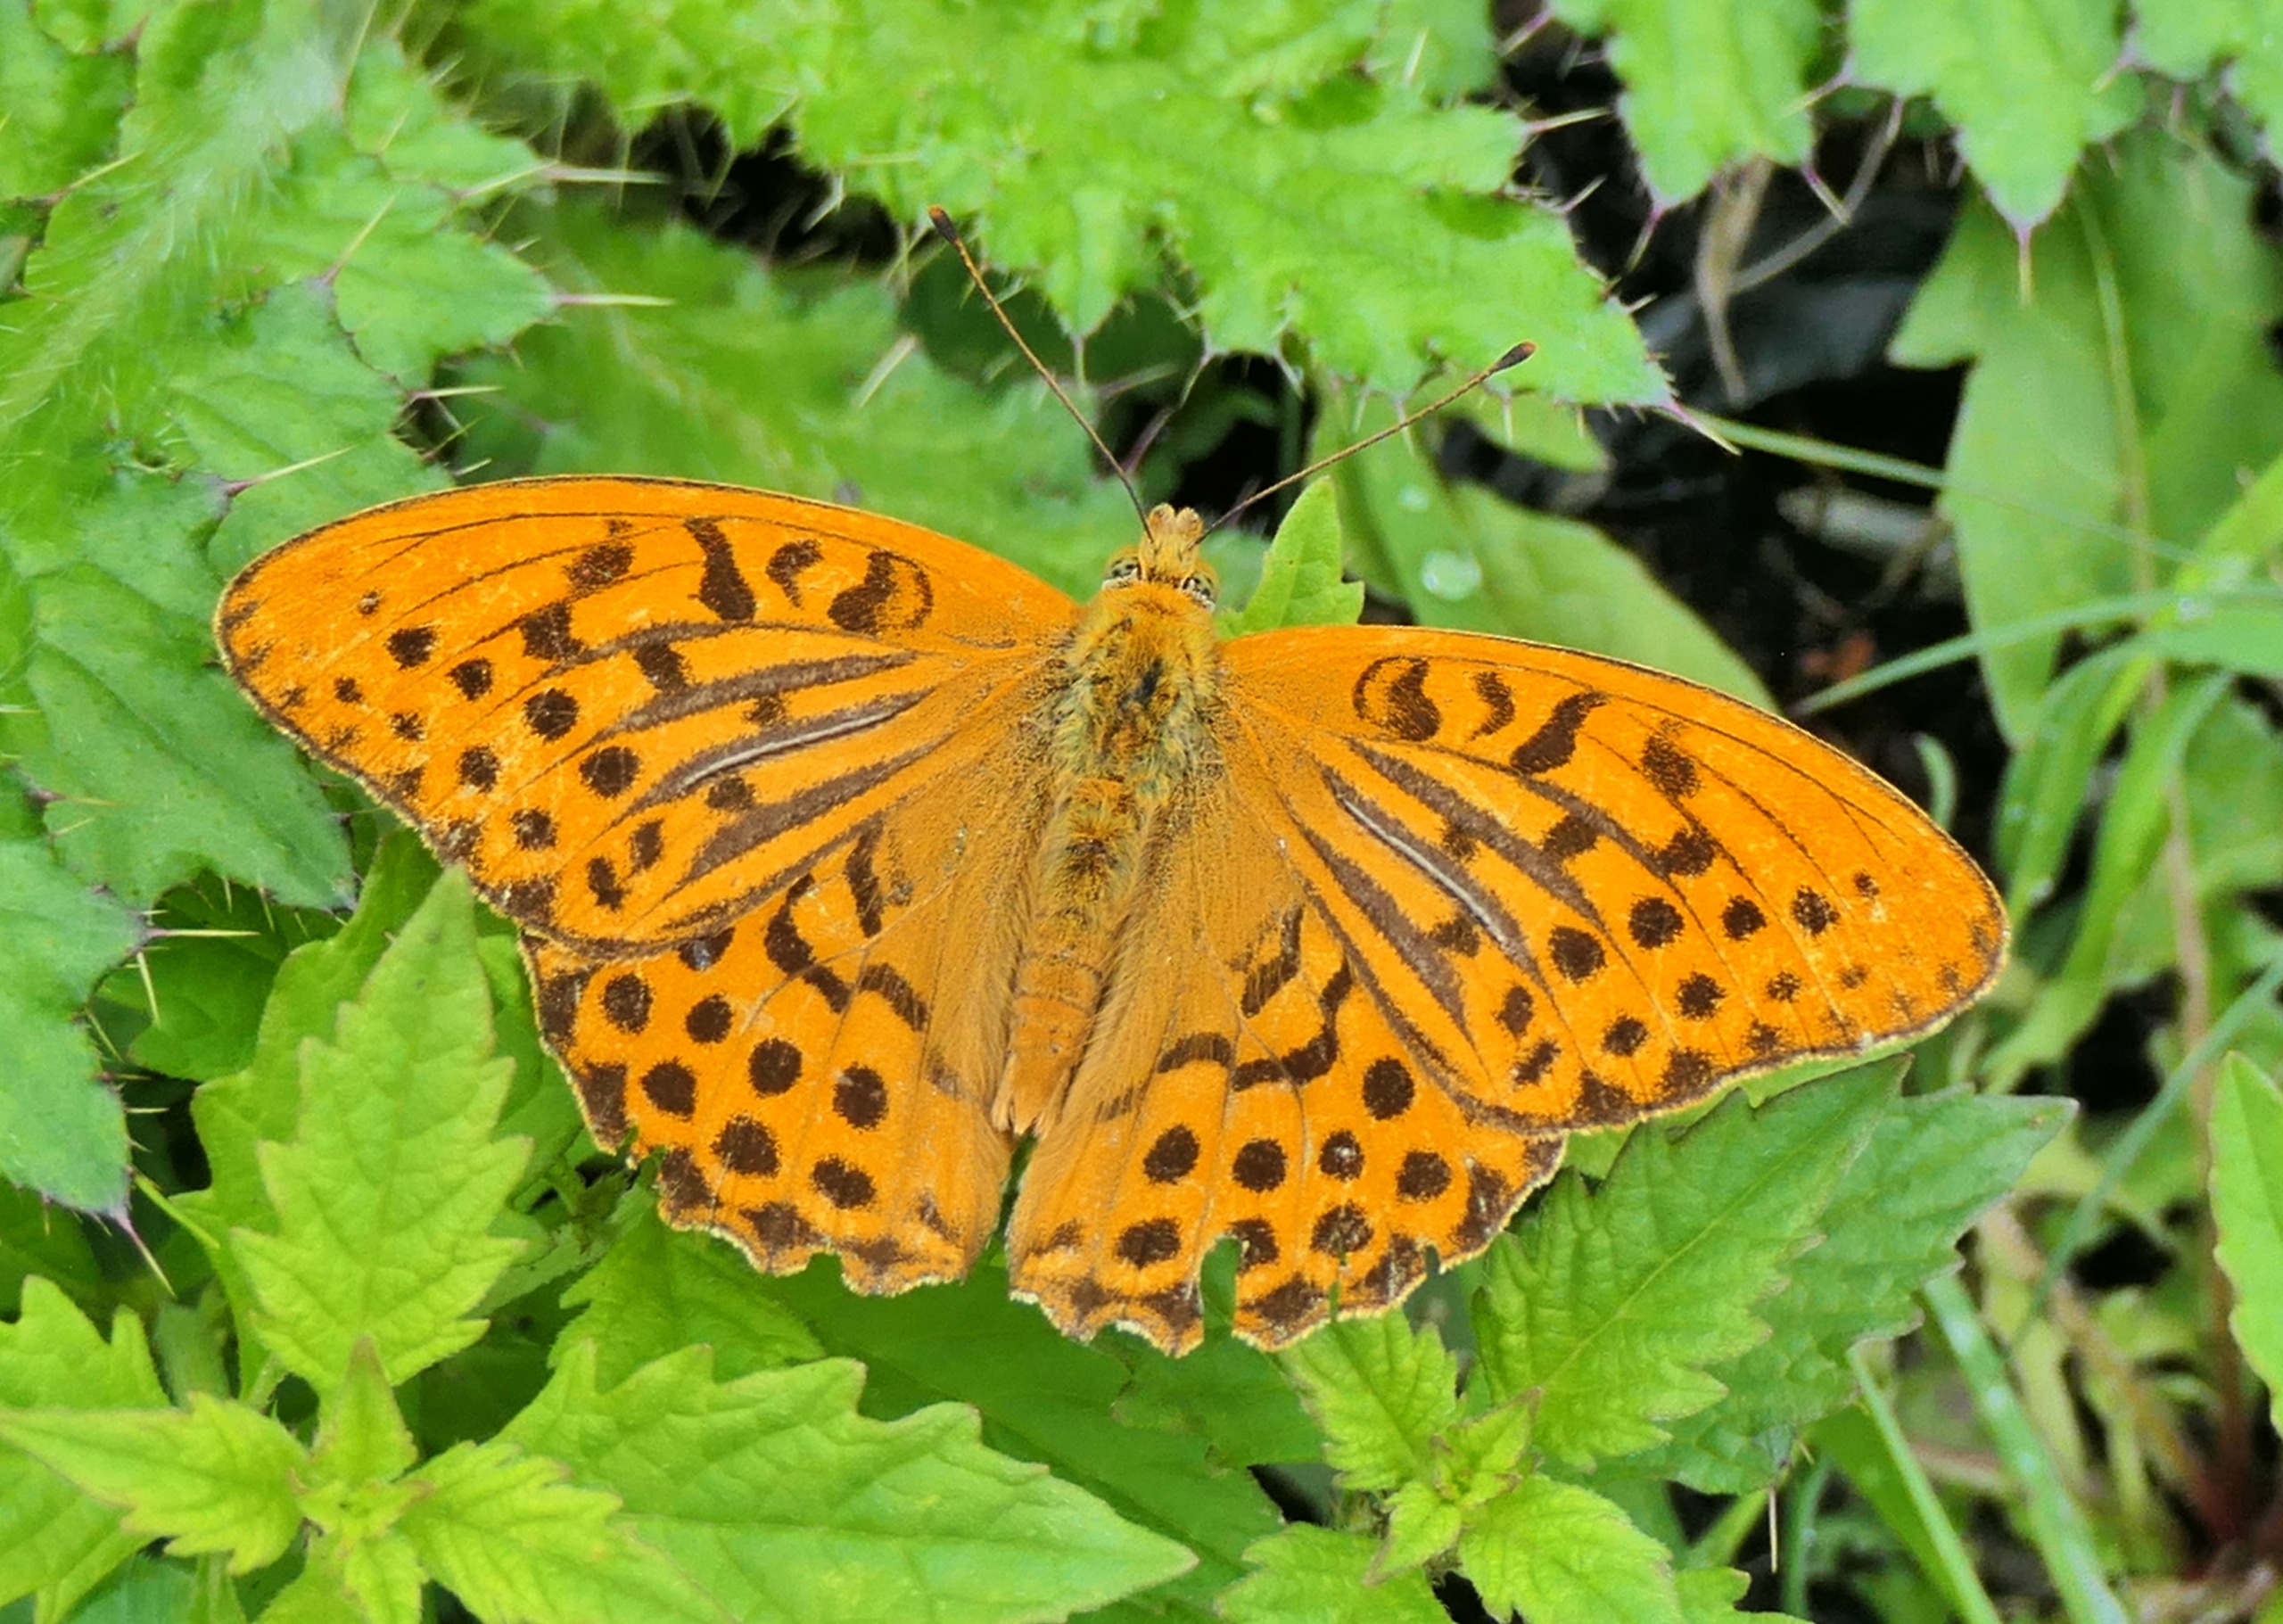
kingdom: Animalia
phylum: Arthropoda
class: Insecta
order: Lepidoptera
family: Nymphalidae
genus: Argynnis
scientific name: Argynnis paphia
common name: Kejserkåbe
